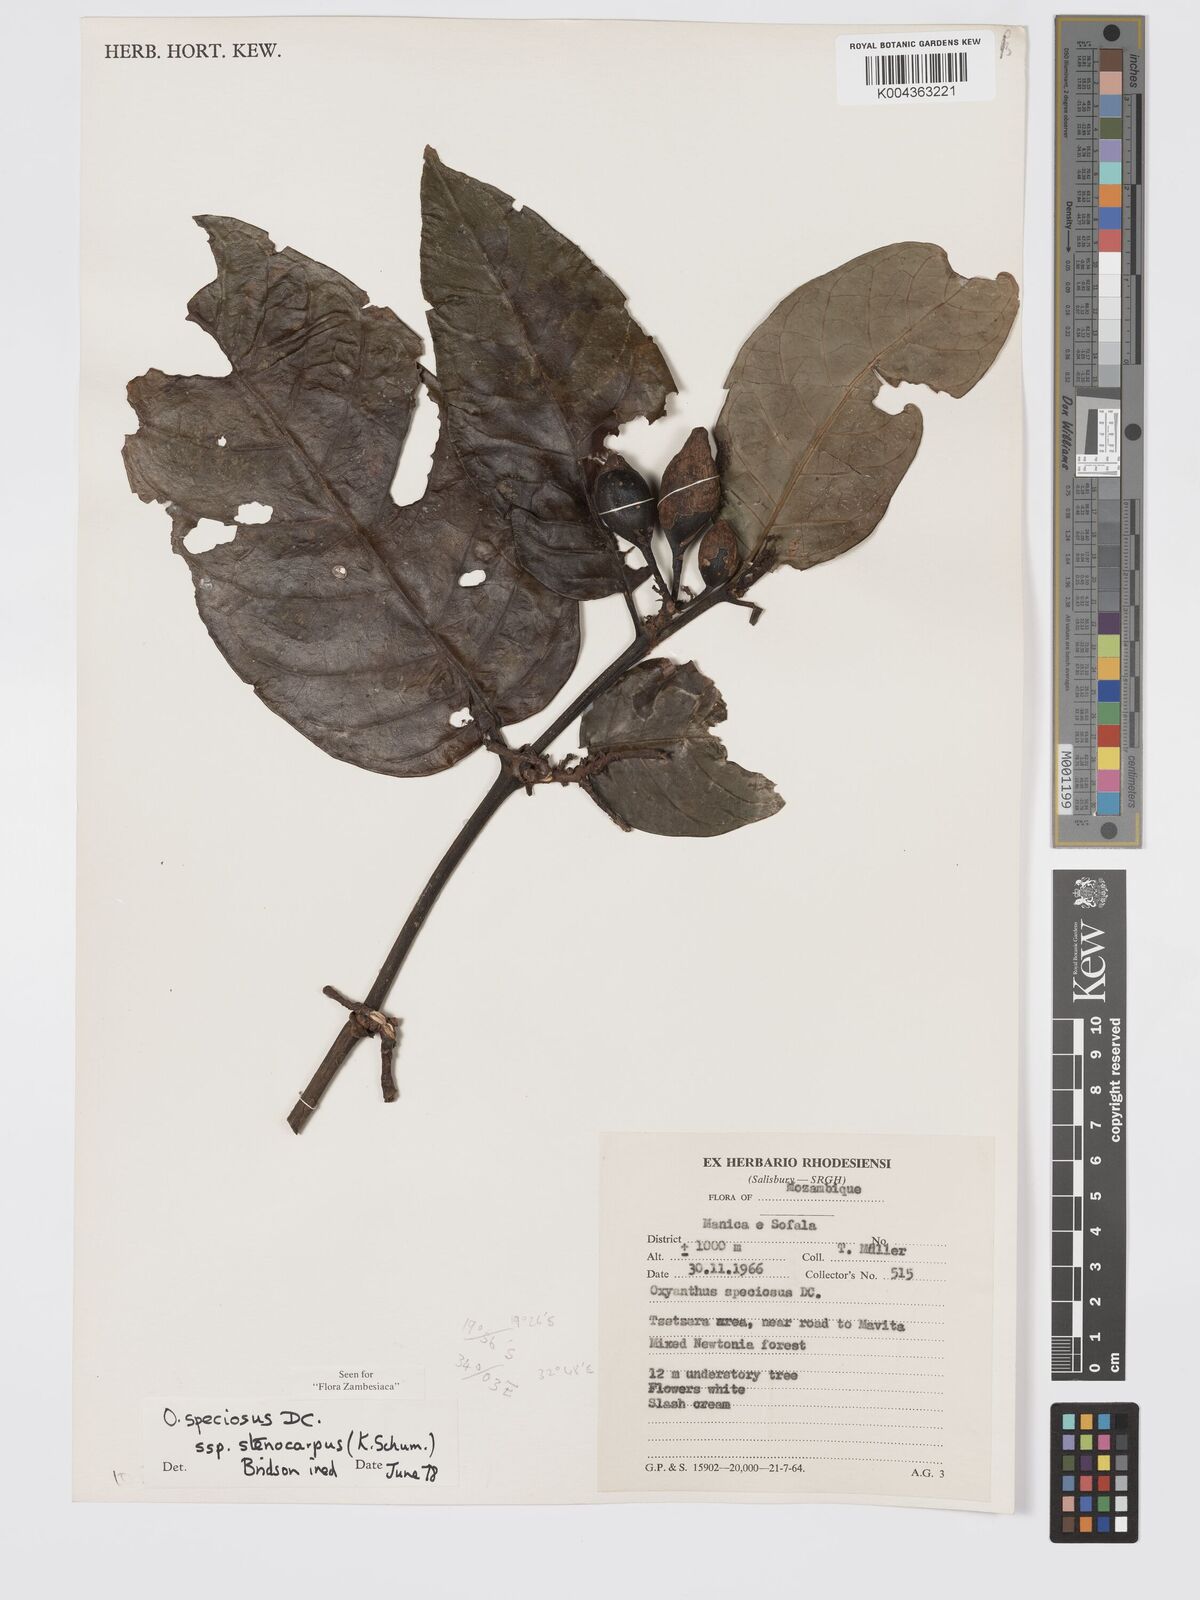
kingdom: Plantae
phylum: Tracheophyta
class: Magnoliopsida
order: Gentianales
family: Rubiaceae
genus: Oxyanthus
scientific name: Oxyanthus speciosus
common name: Whipstick loquat
